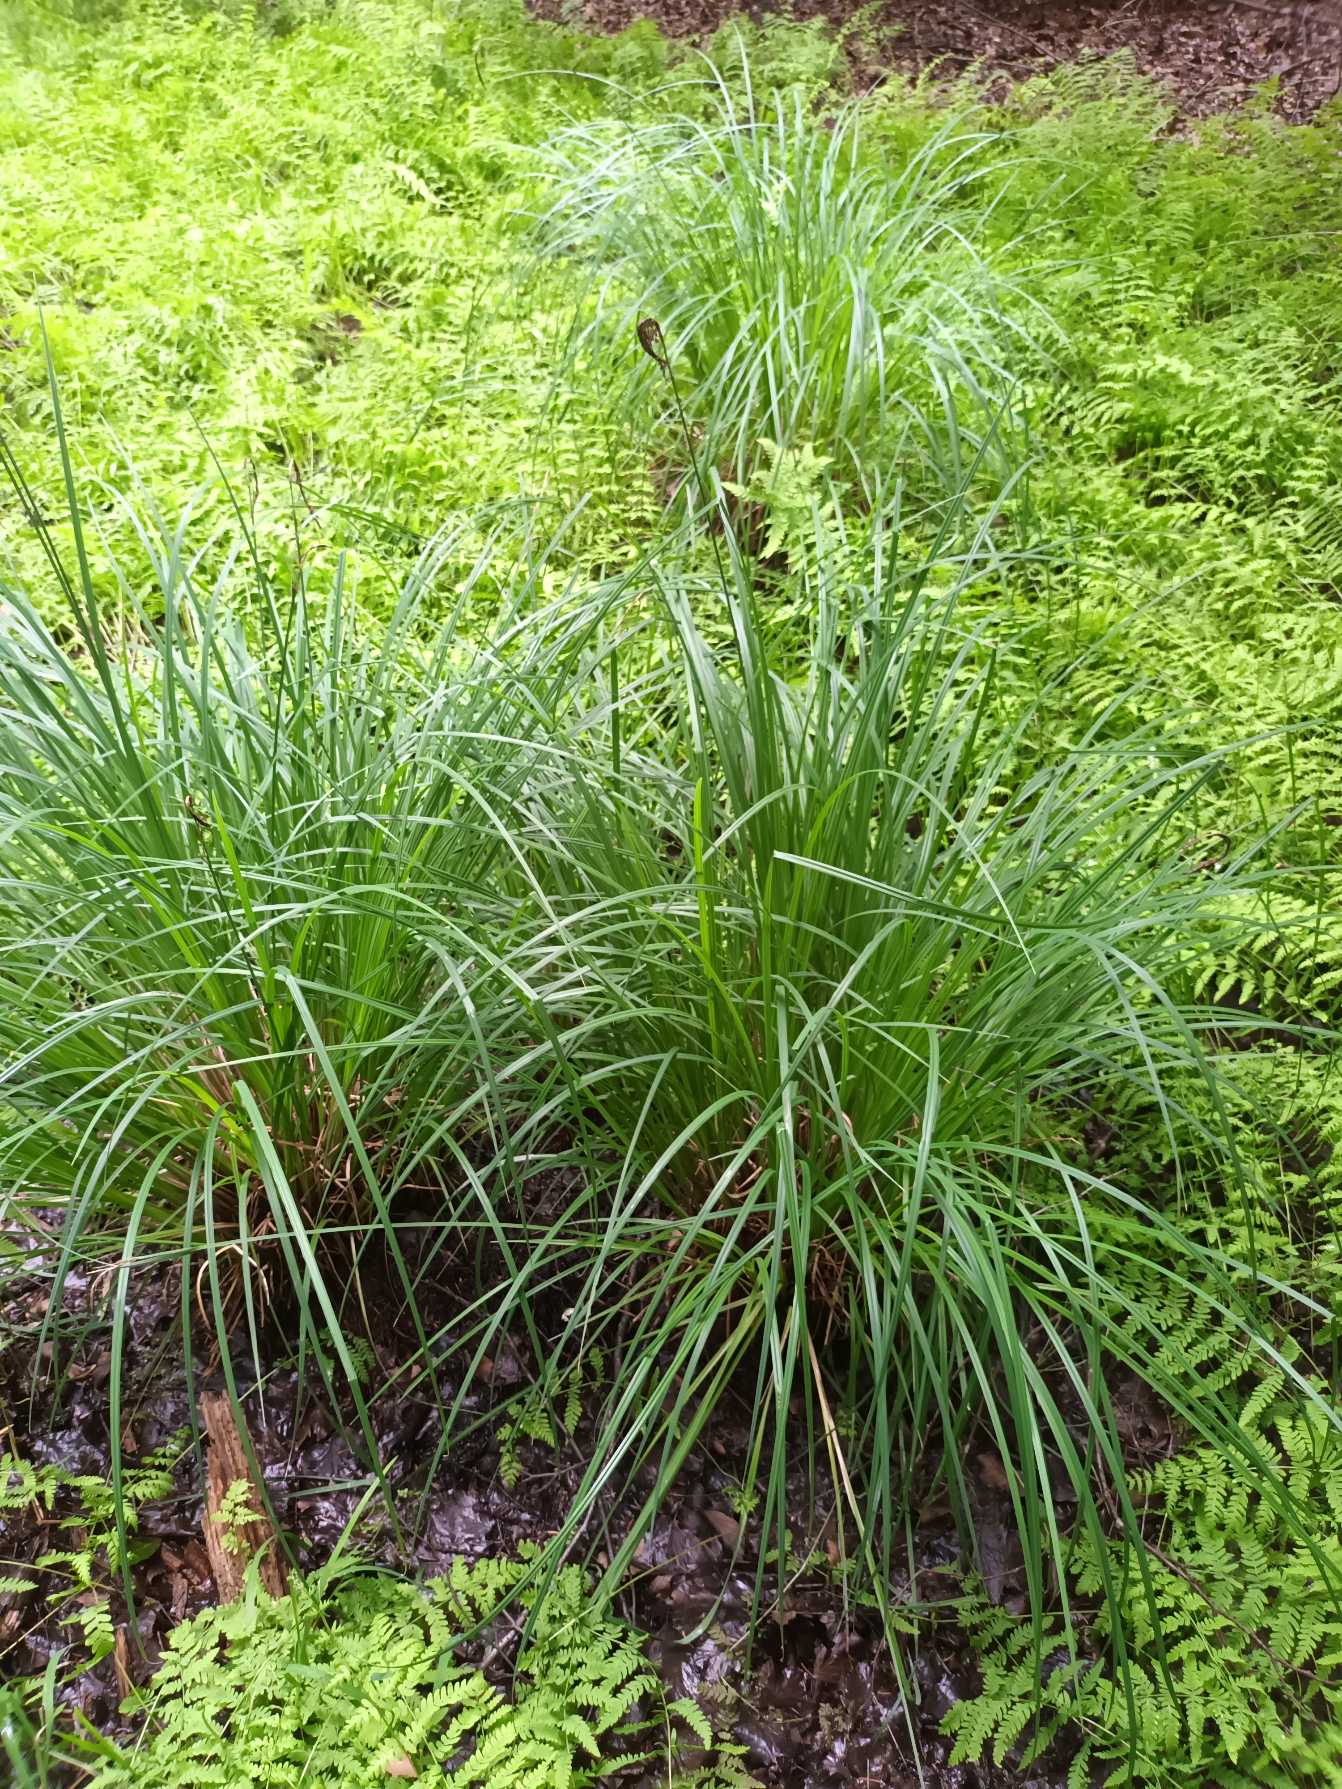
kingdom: Plantae
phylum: Tracheophyta
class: Liliopsida
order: Poales
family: Cyperaceae
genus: Carex
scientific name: Carex elata
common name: Stiv star
